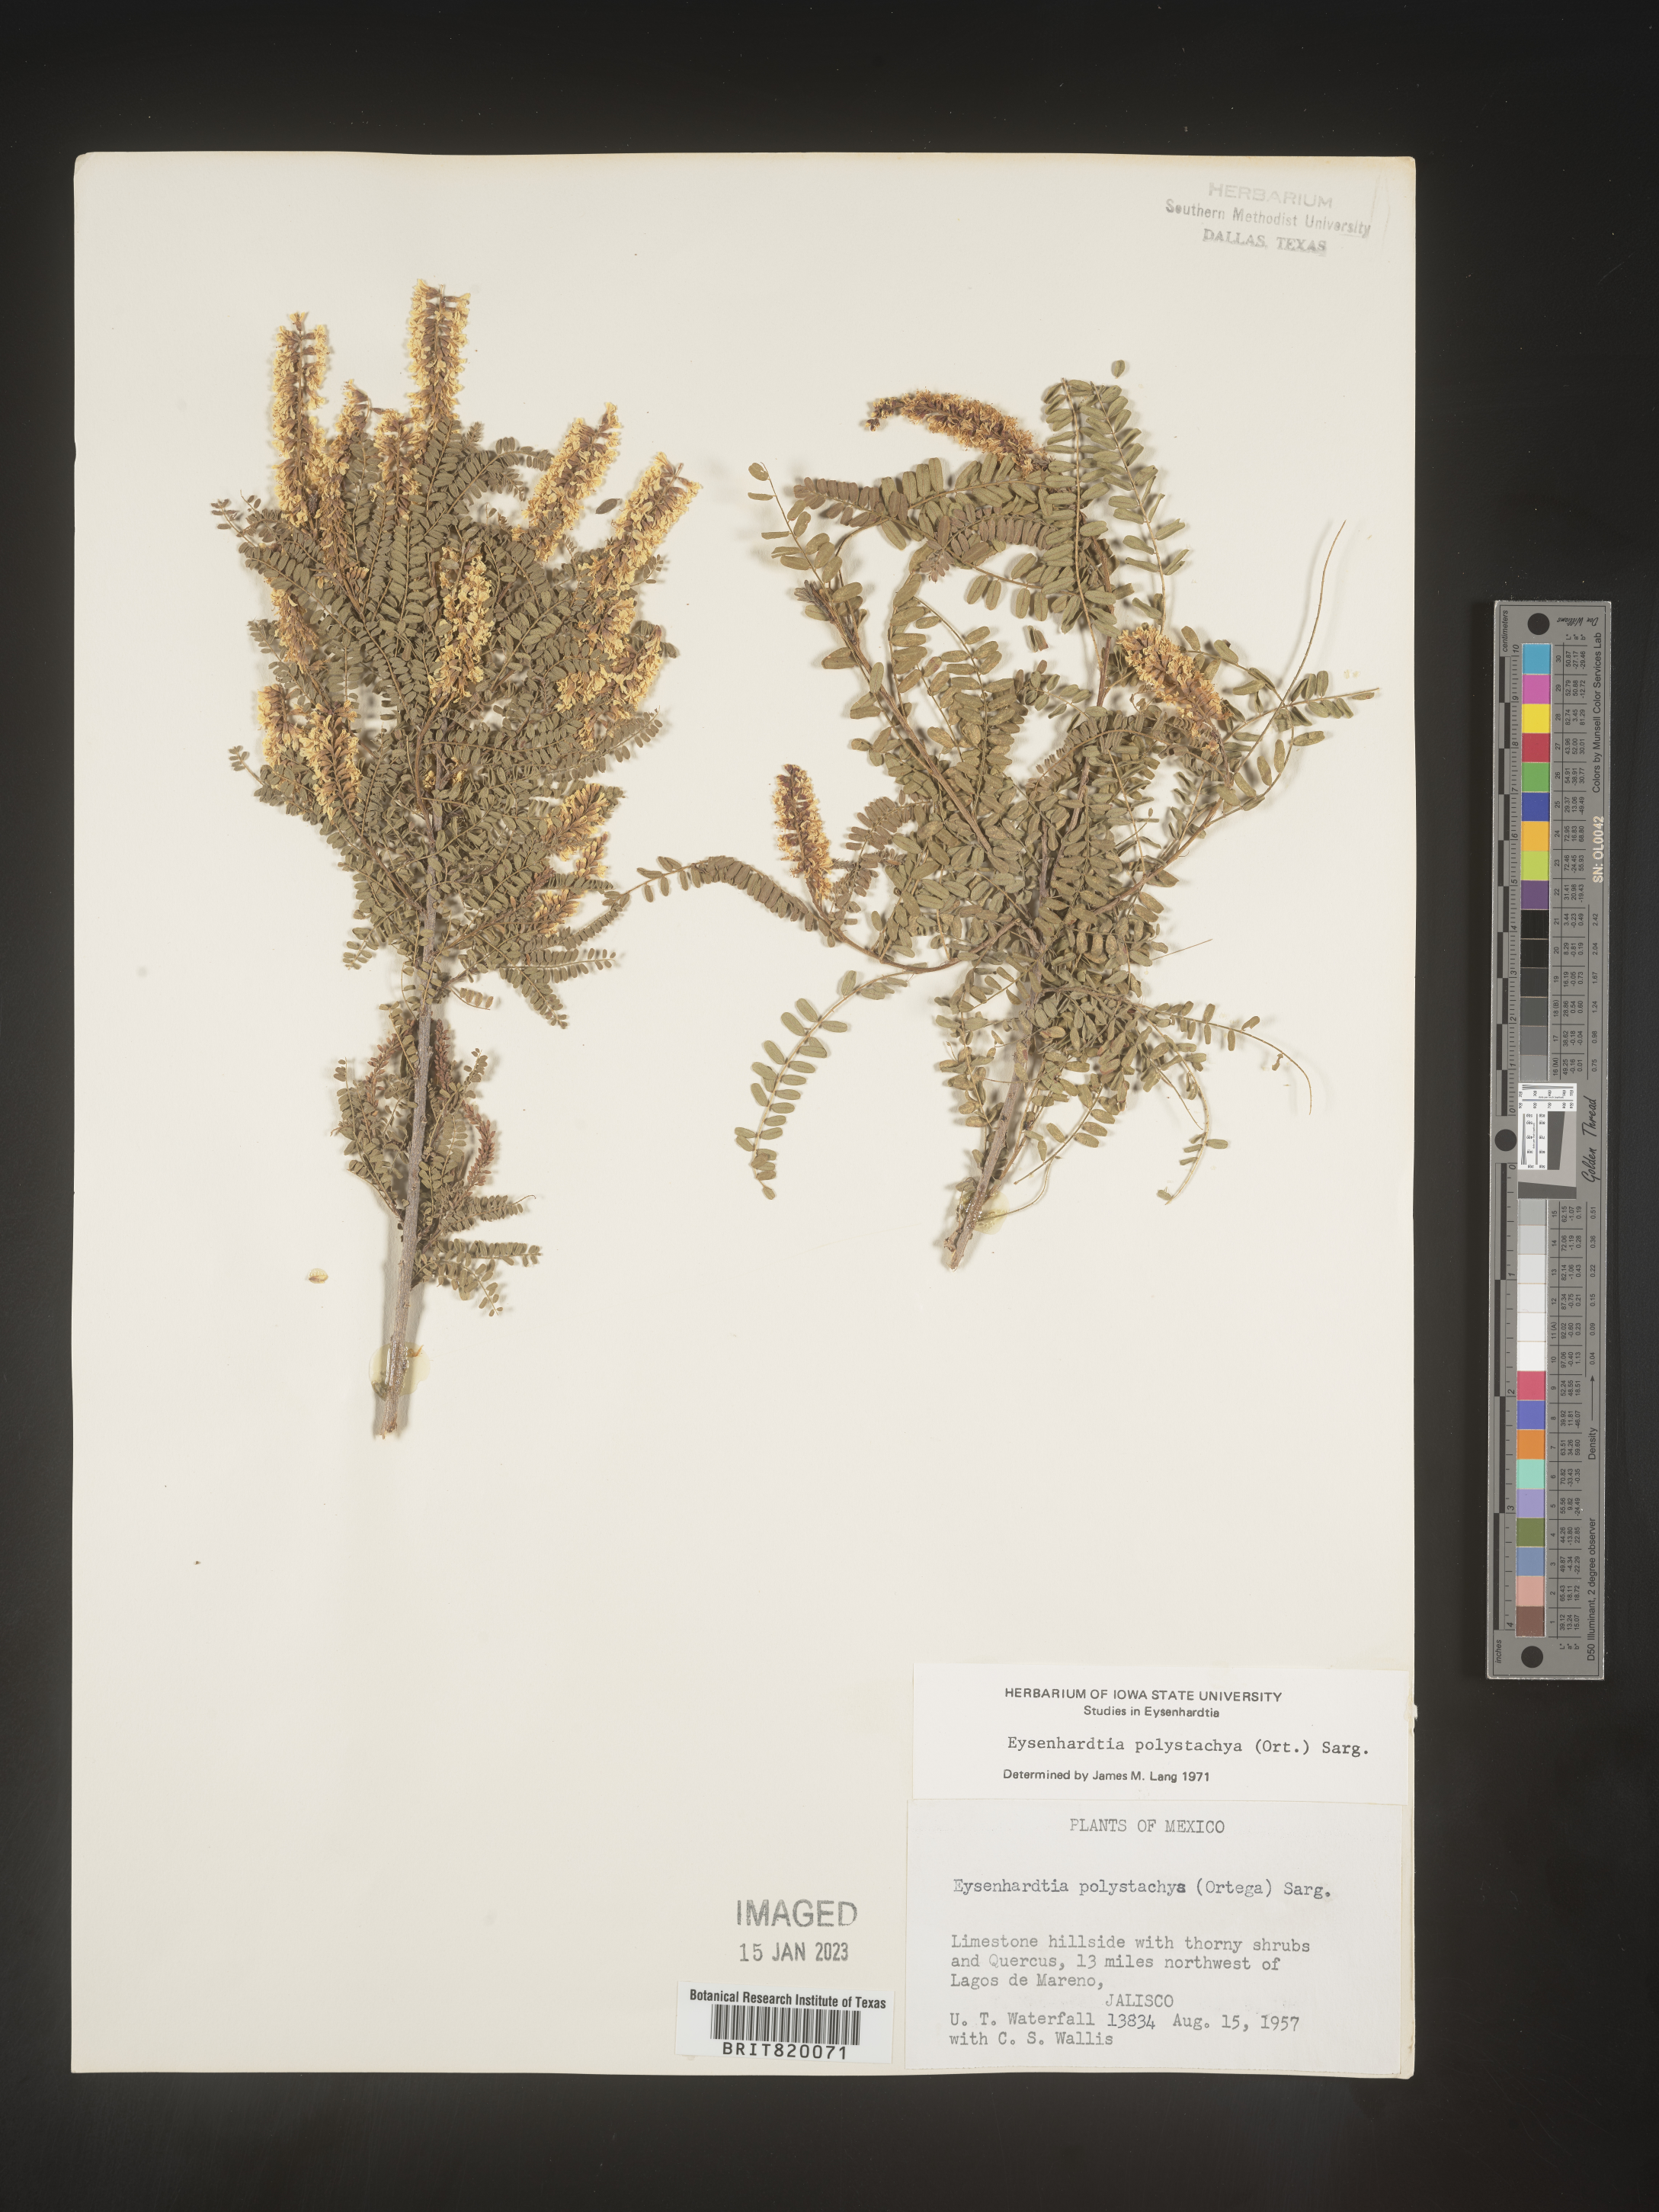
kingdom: Plantae
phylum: Tracheophyta
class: Magnoliopsida
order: Fabales
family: Fabaceae
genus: Eysenhardtia
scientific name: Eysenhardtia
